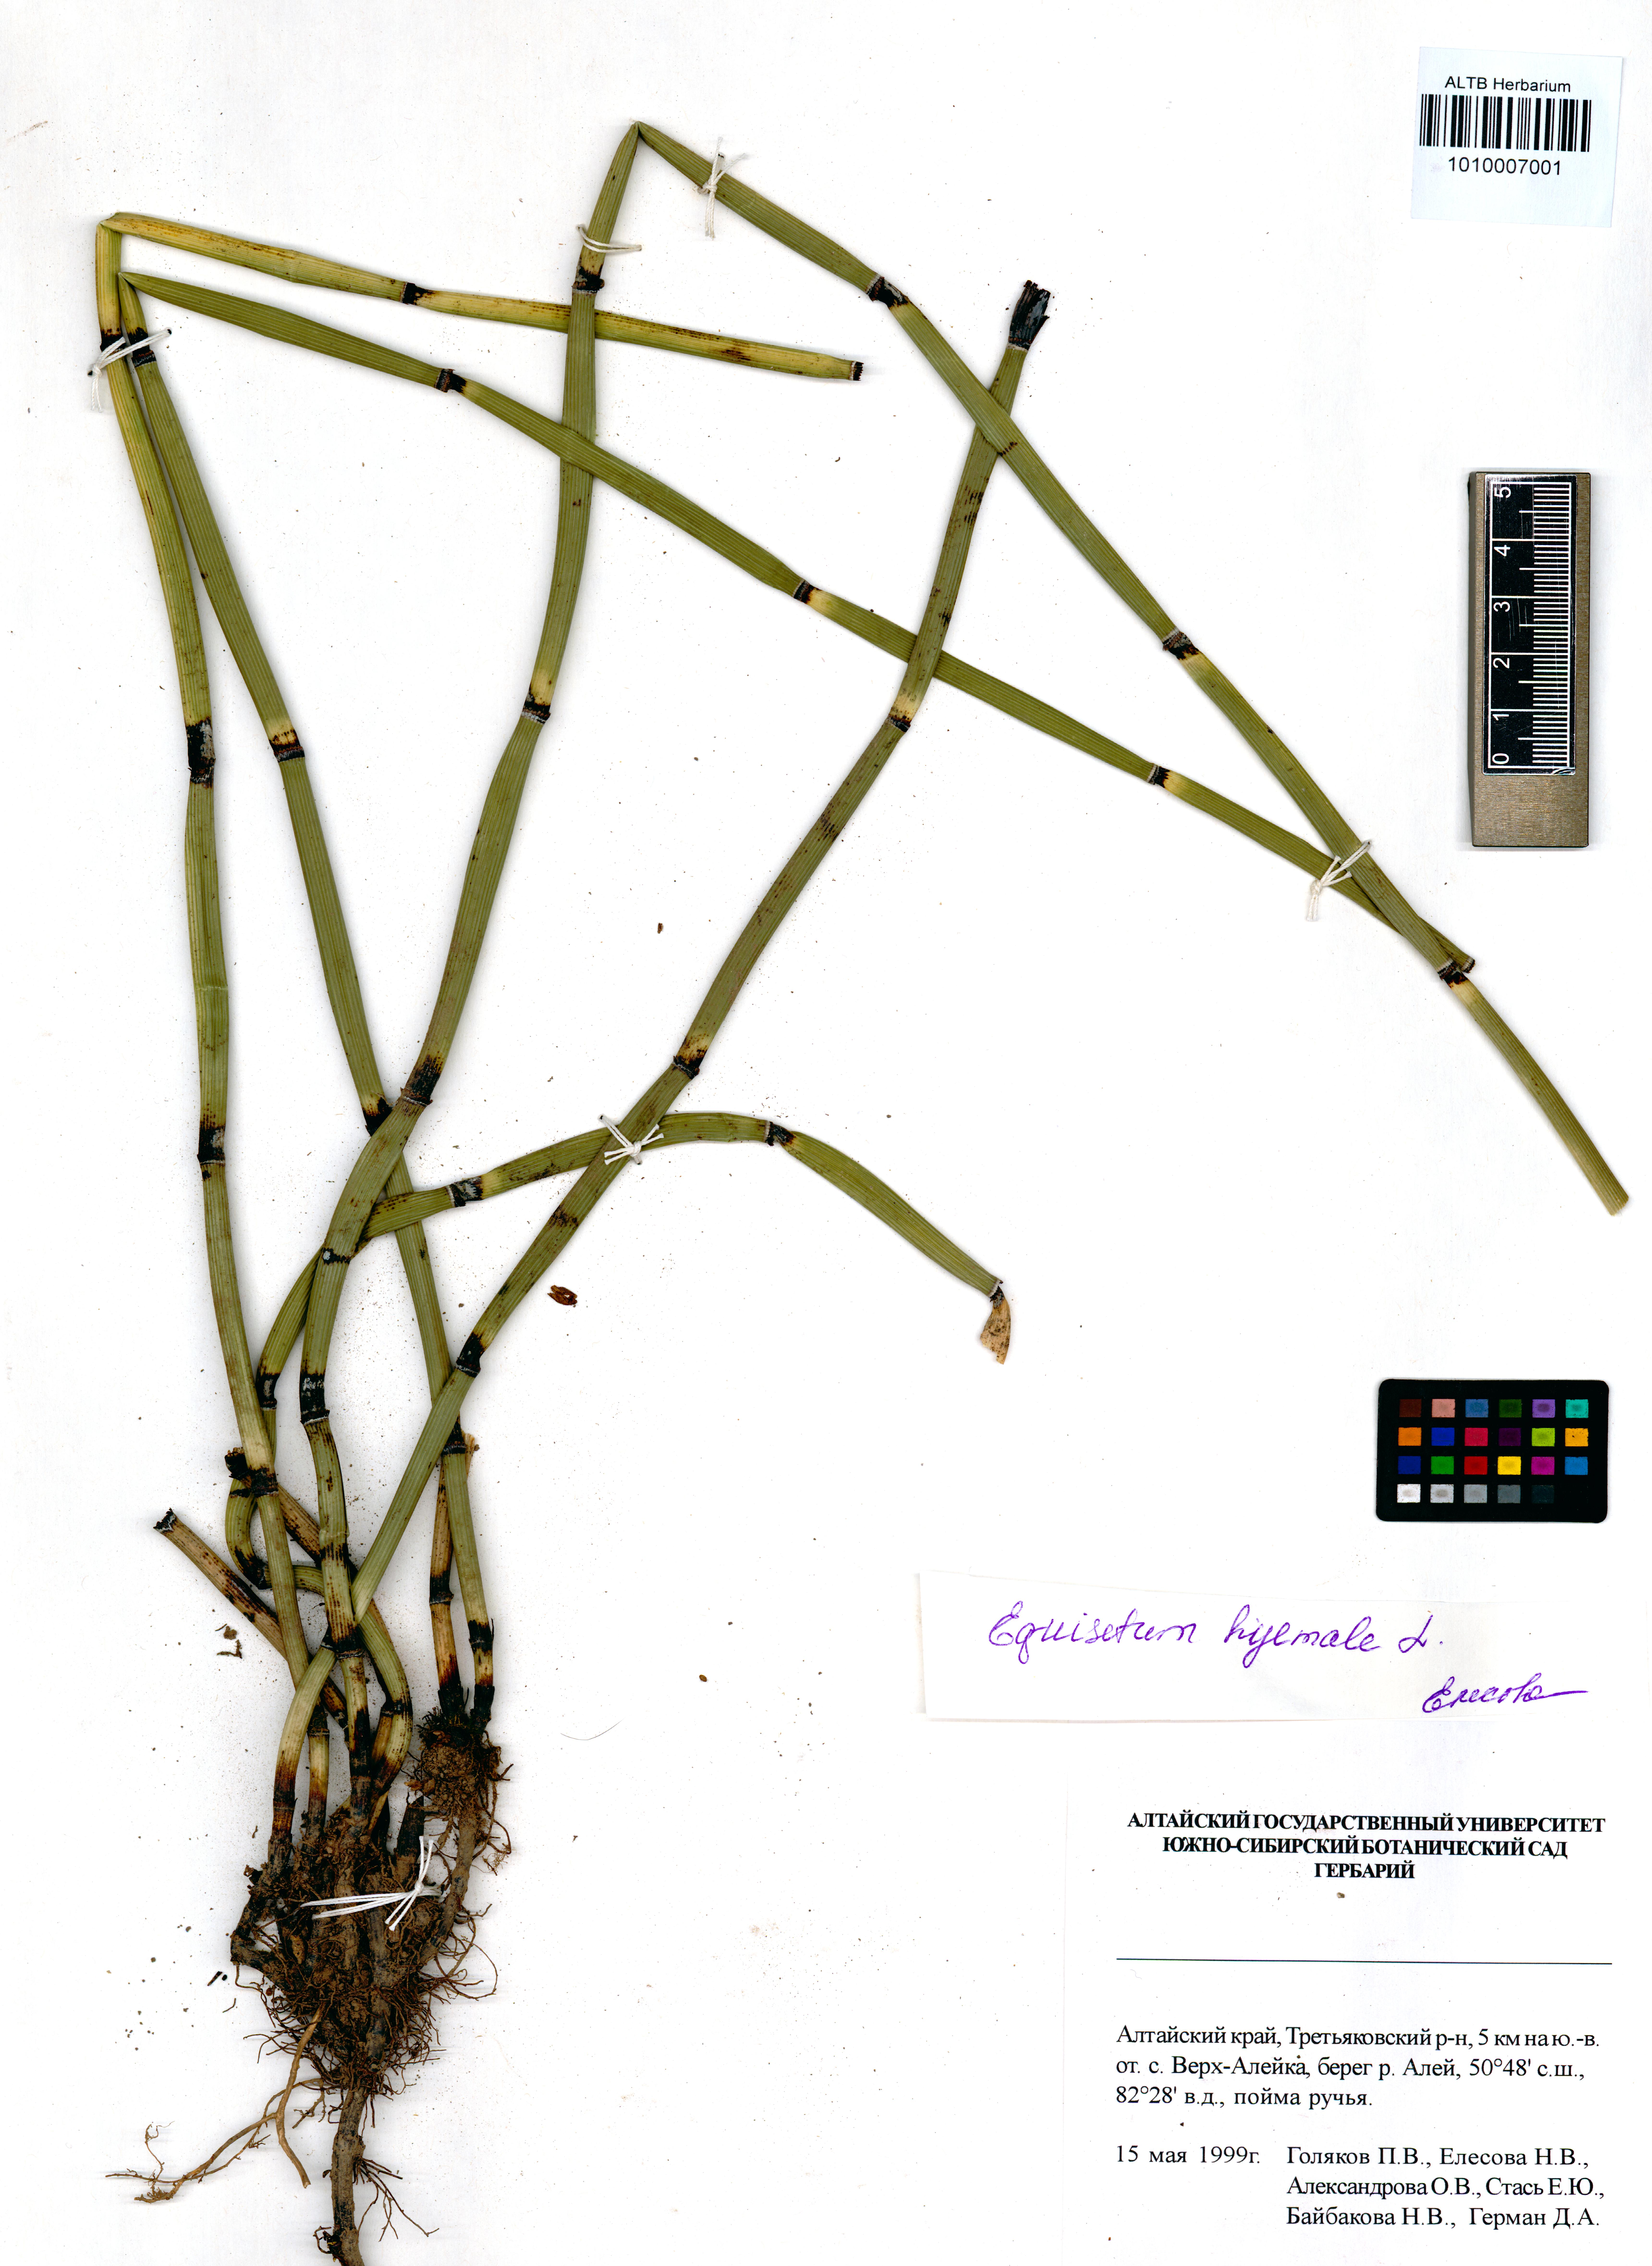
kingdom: Plantae
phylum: Tracheophyta
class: Polypodiopsida
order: Equisetales
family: Equisetaceae
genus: Equisetum
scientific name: Equisetum hyemale
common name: Rough horsetail
